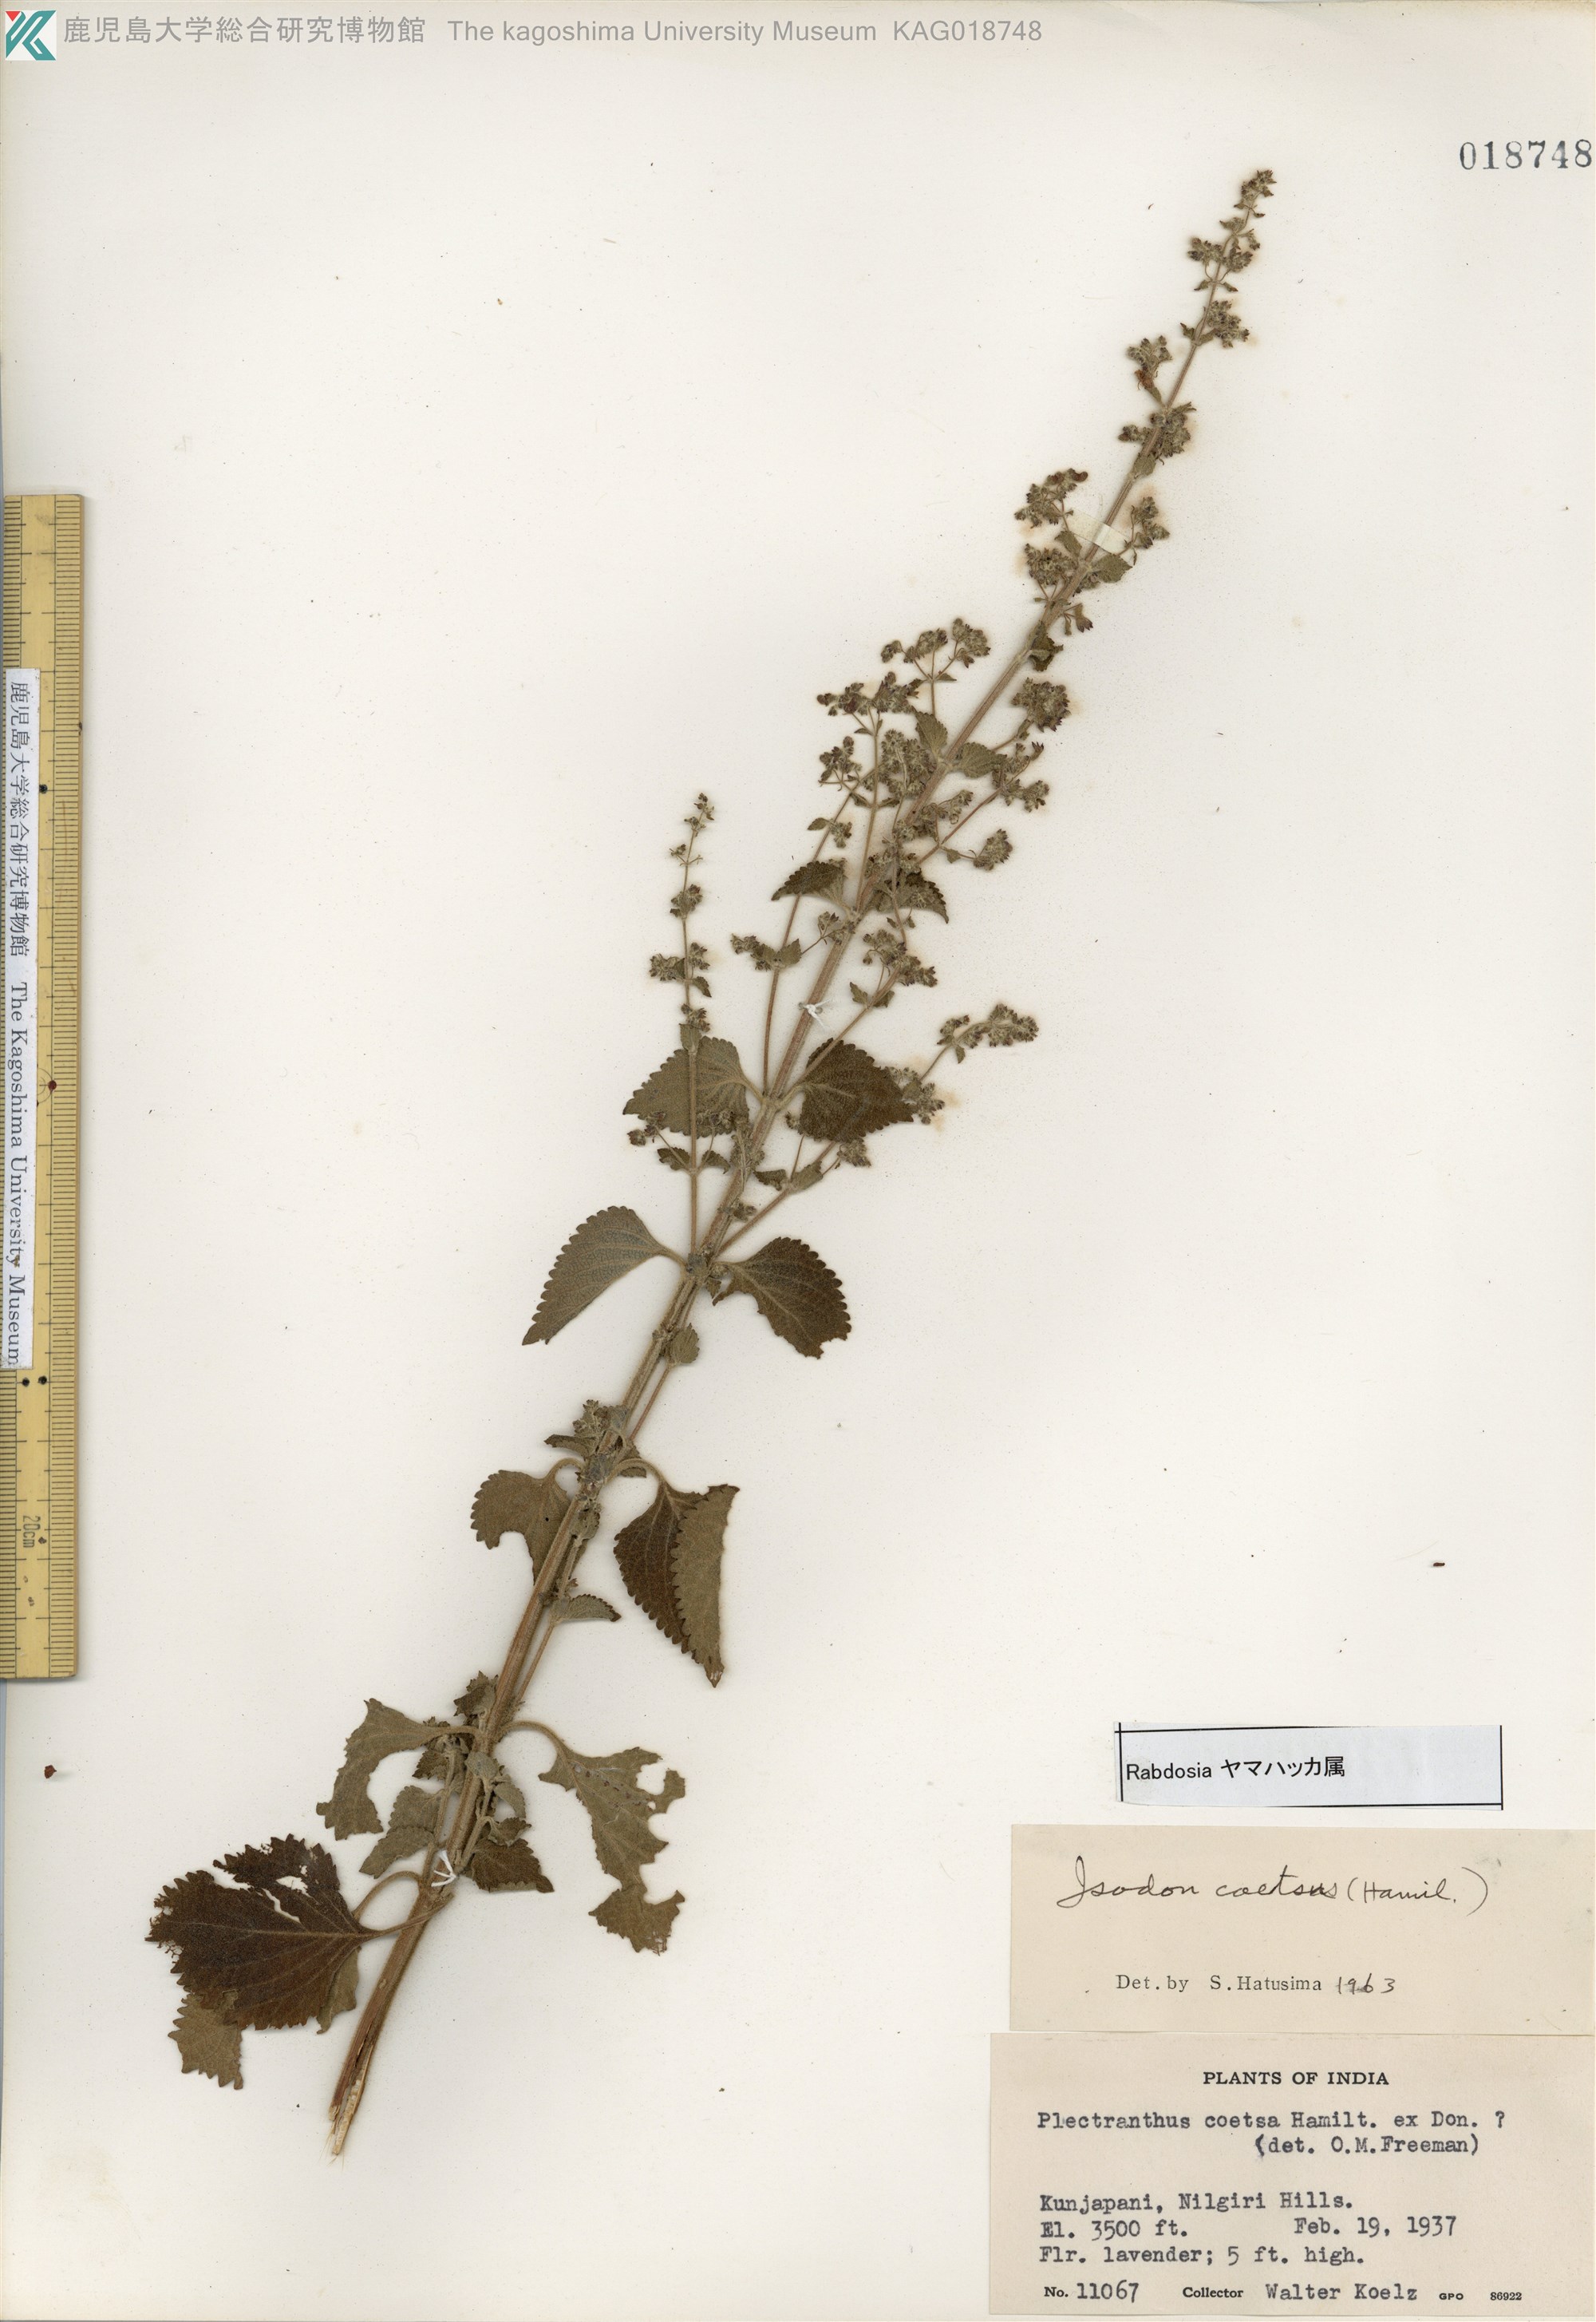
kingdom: Plantae
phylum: Tracheophyta
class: Magnoliopsida
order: Lamiales
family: Lamiaceae
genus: Isodon
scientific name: Isodon coetsa
